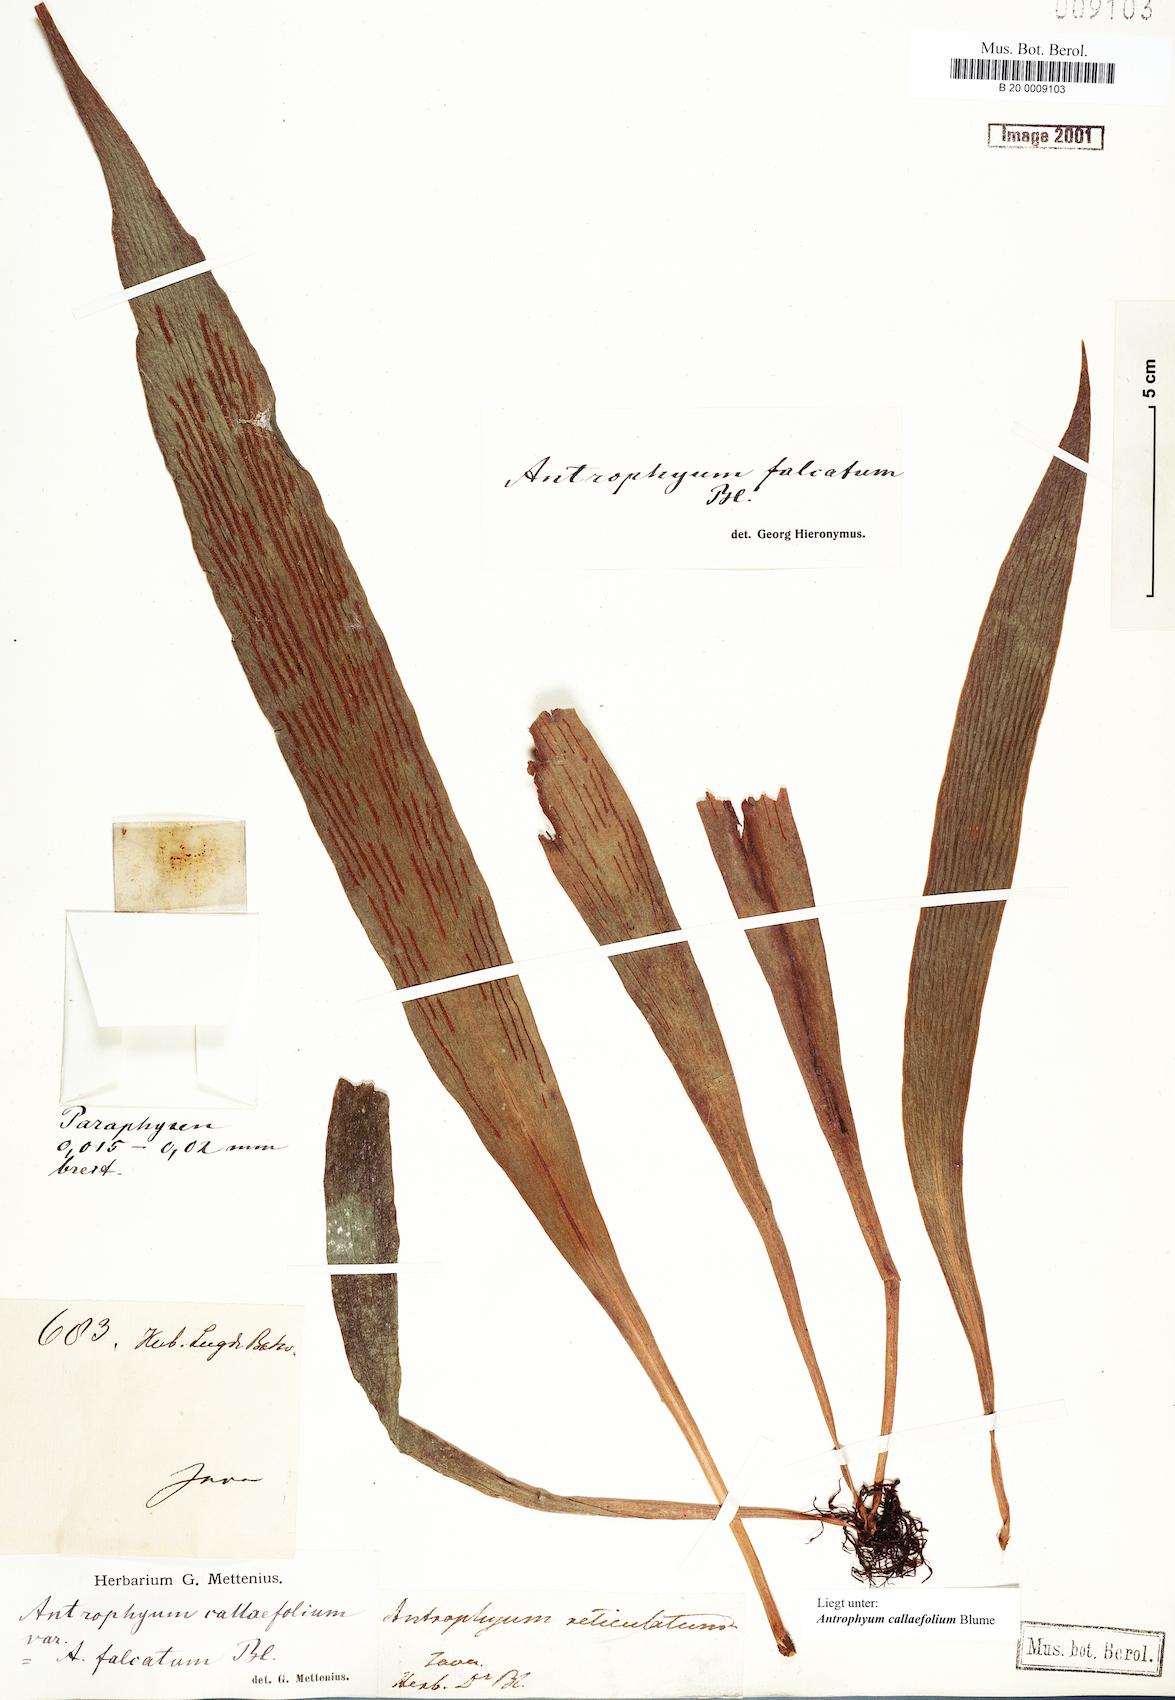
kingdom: Plantae
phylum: Tracheophyta
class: Polypodiopsida
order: Polypodiales
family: Pteridaceae
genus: Antrophyum
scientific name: Antrophyum callifolium
